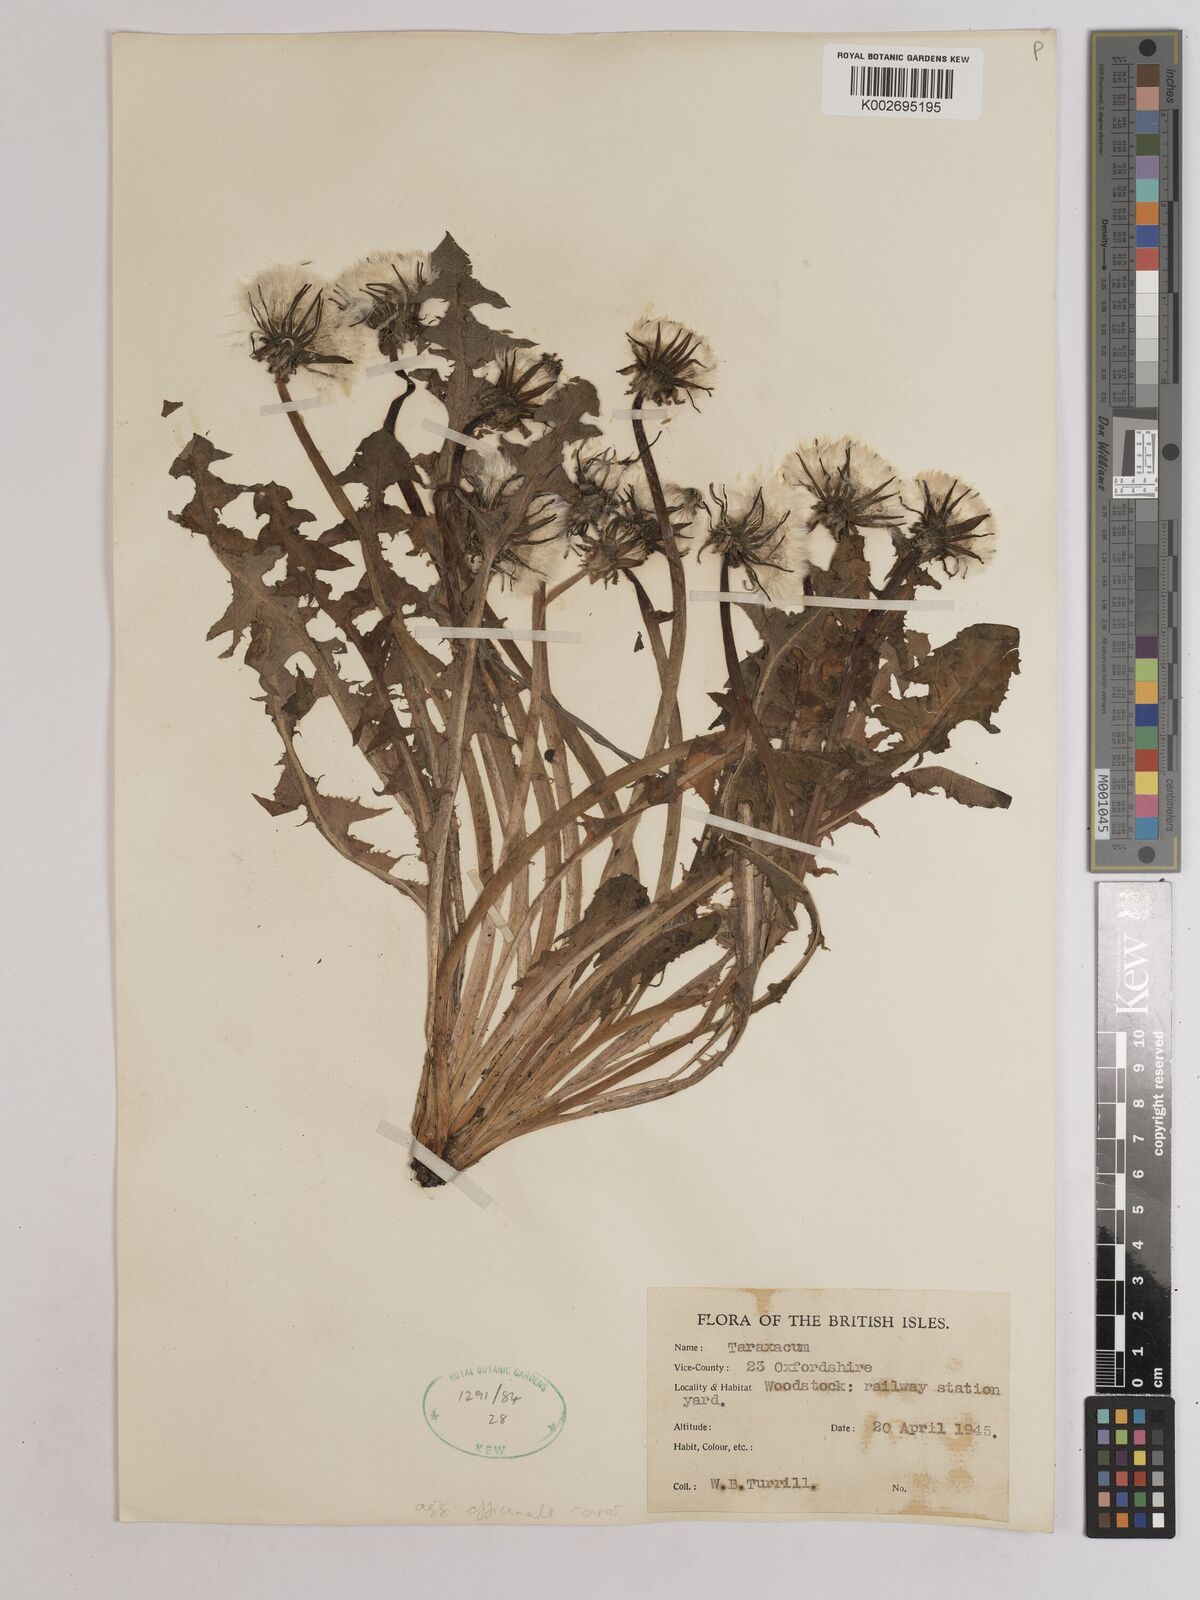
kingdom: Plantae
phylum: Tracheophyta
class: Magnoliopsida
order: Asterales
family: Asteraceae
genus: Taraxacum
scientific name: Taraxacum officinale
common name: Common dandelion
